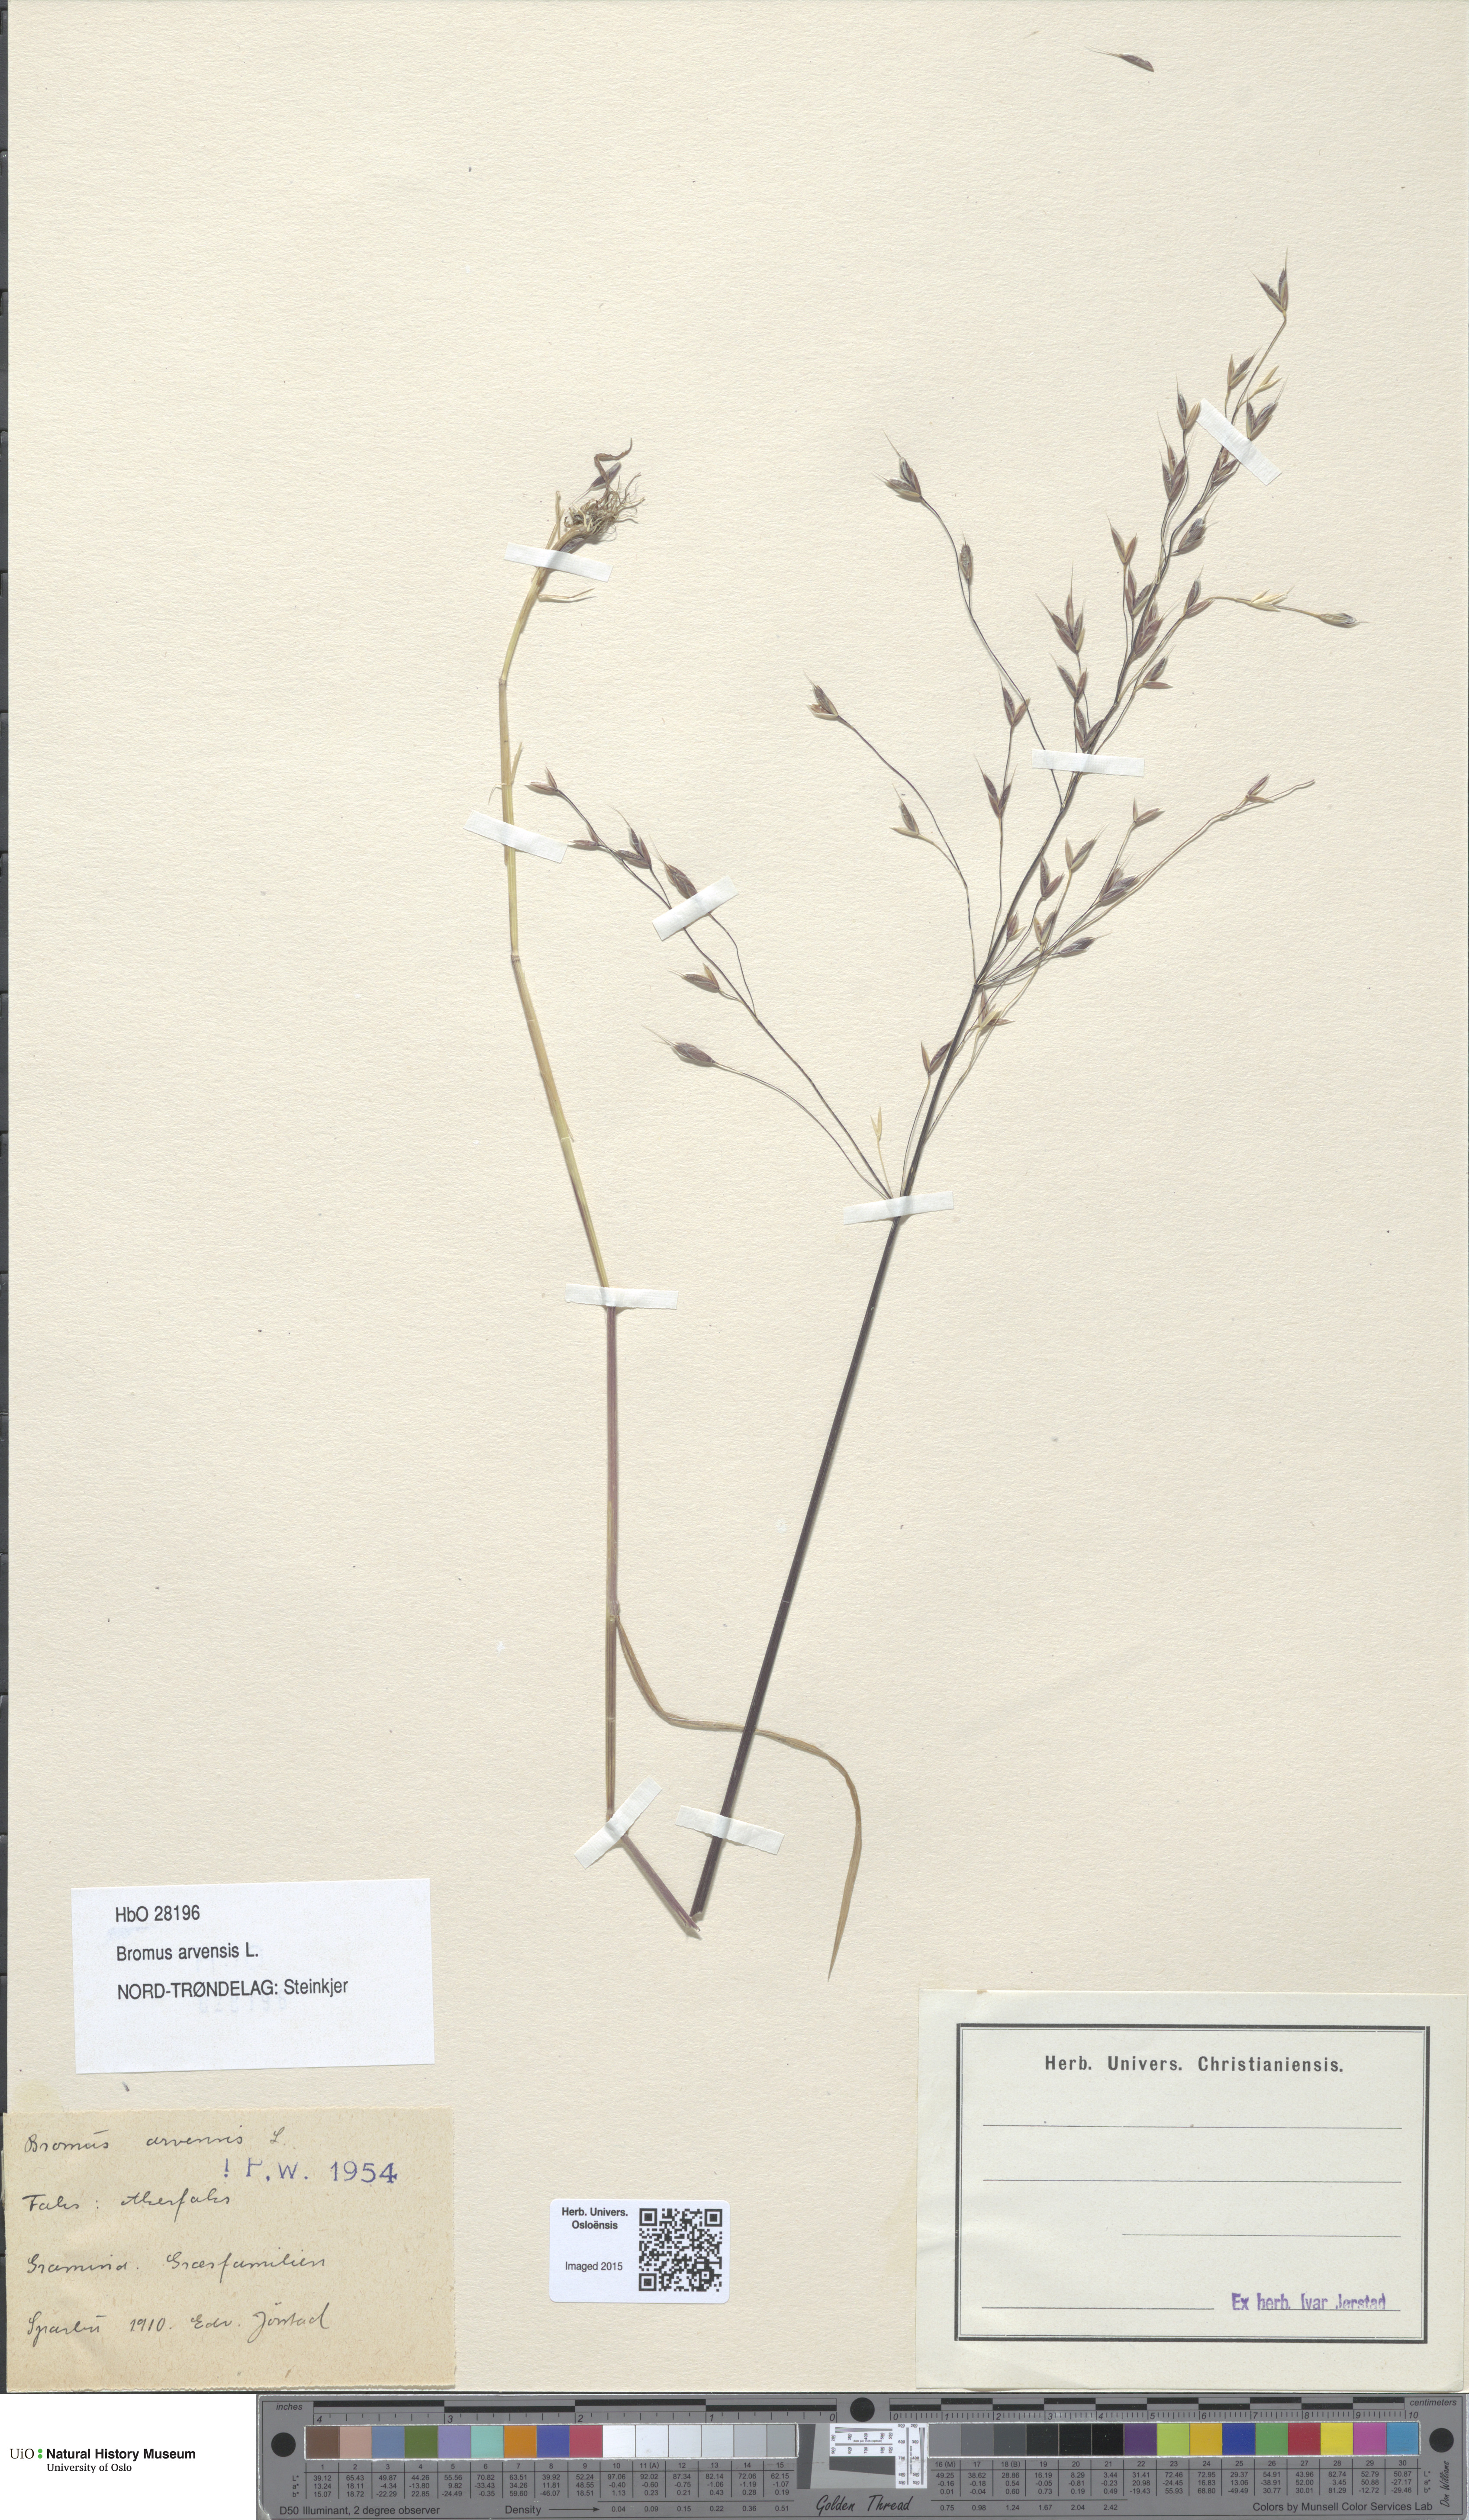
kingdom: Plantae
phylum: Tracheophyta
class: Liliopsida
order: Poales
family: Poaceae
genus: Bromus
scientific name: Bromus arvensis
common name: Field brome
